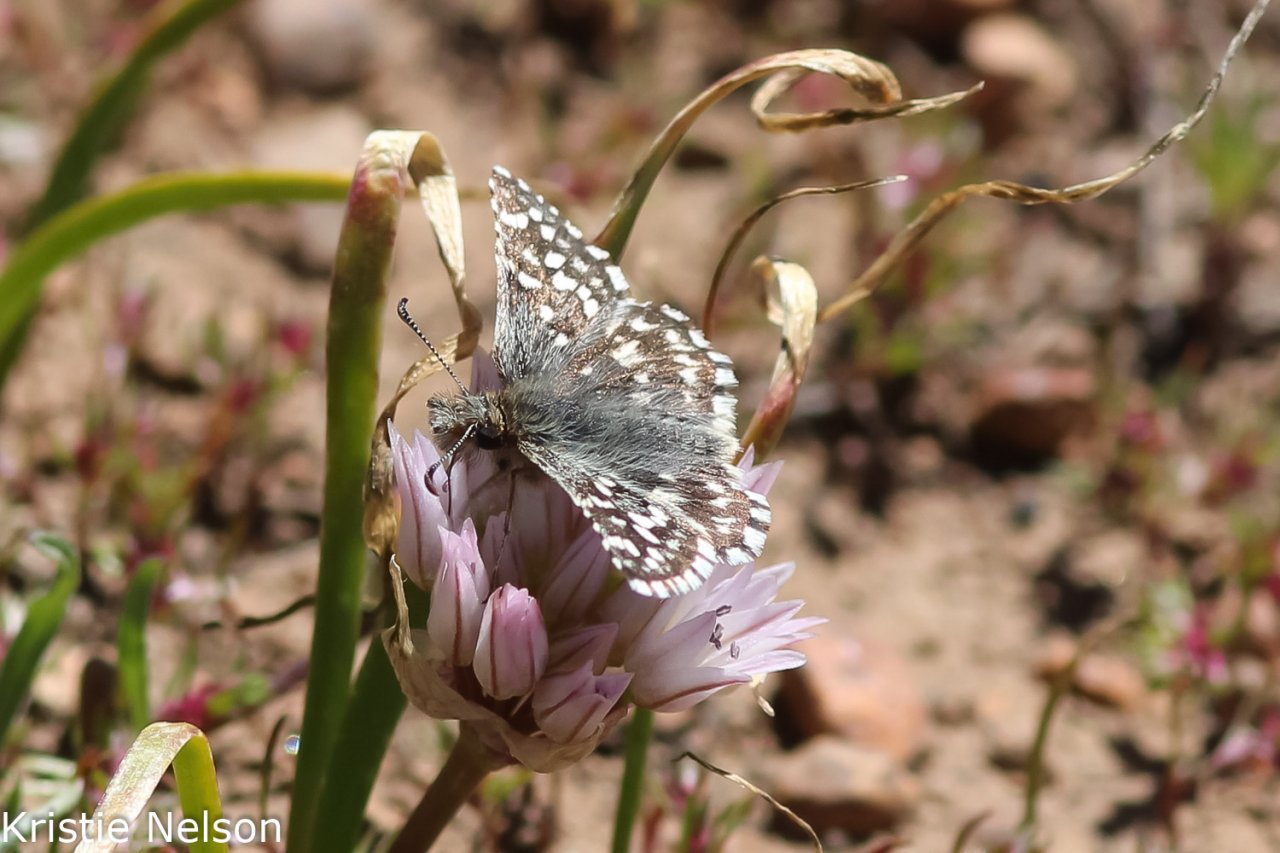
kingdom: Animalia
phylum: Arthropoda
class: Insecta
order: Lepidoptera
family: Hesperiidae
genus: Pyrgus
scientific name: Pyrgus ruralis
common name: Two-banded Checkered-Skipper
